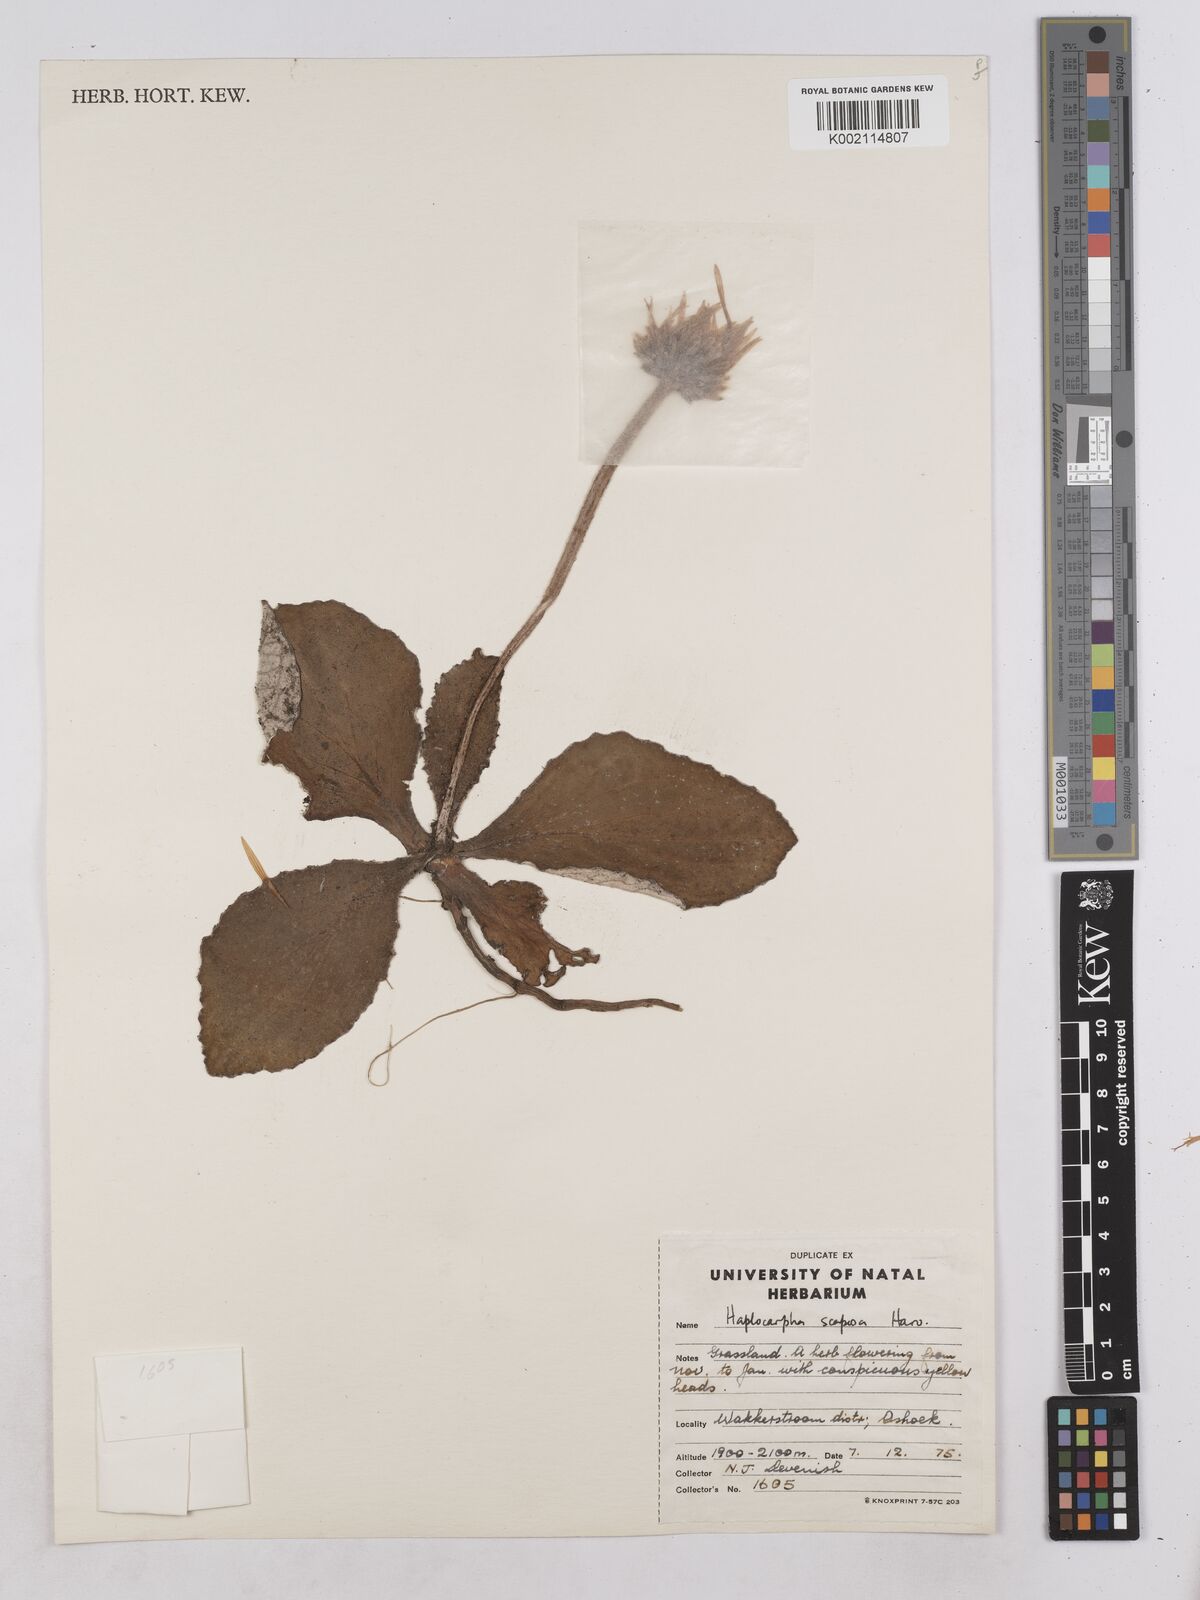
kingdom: Plantae
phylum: Tracheophyta
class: Magnoliopsida
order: Asterales
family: Asteraceae
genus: Haplocarpha
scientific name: Haplocarpha scaposa
